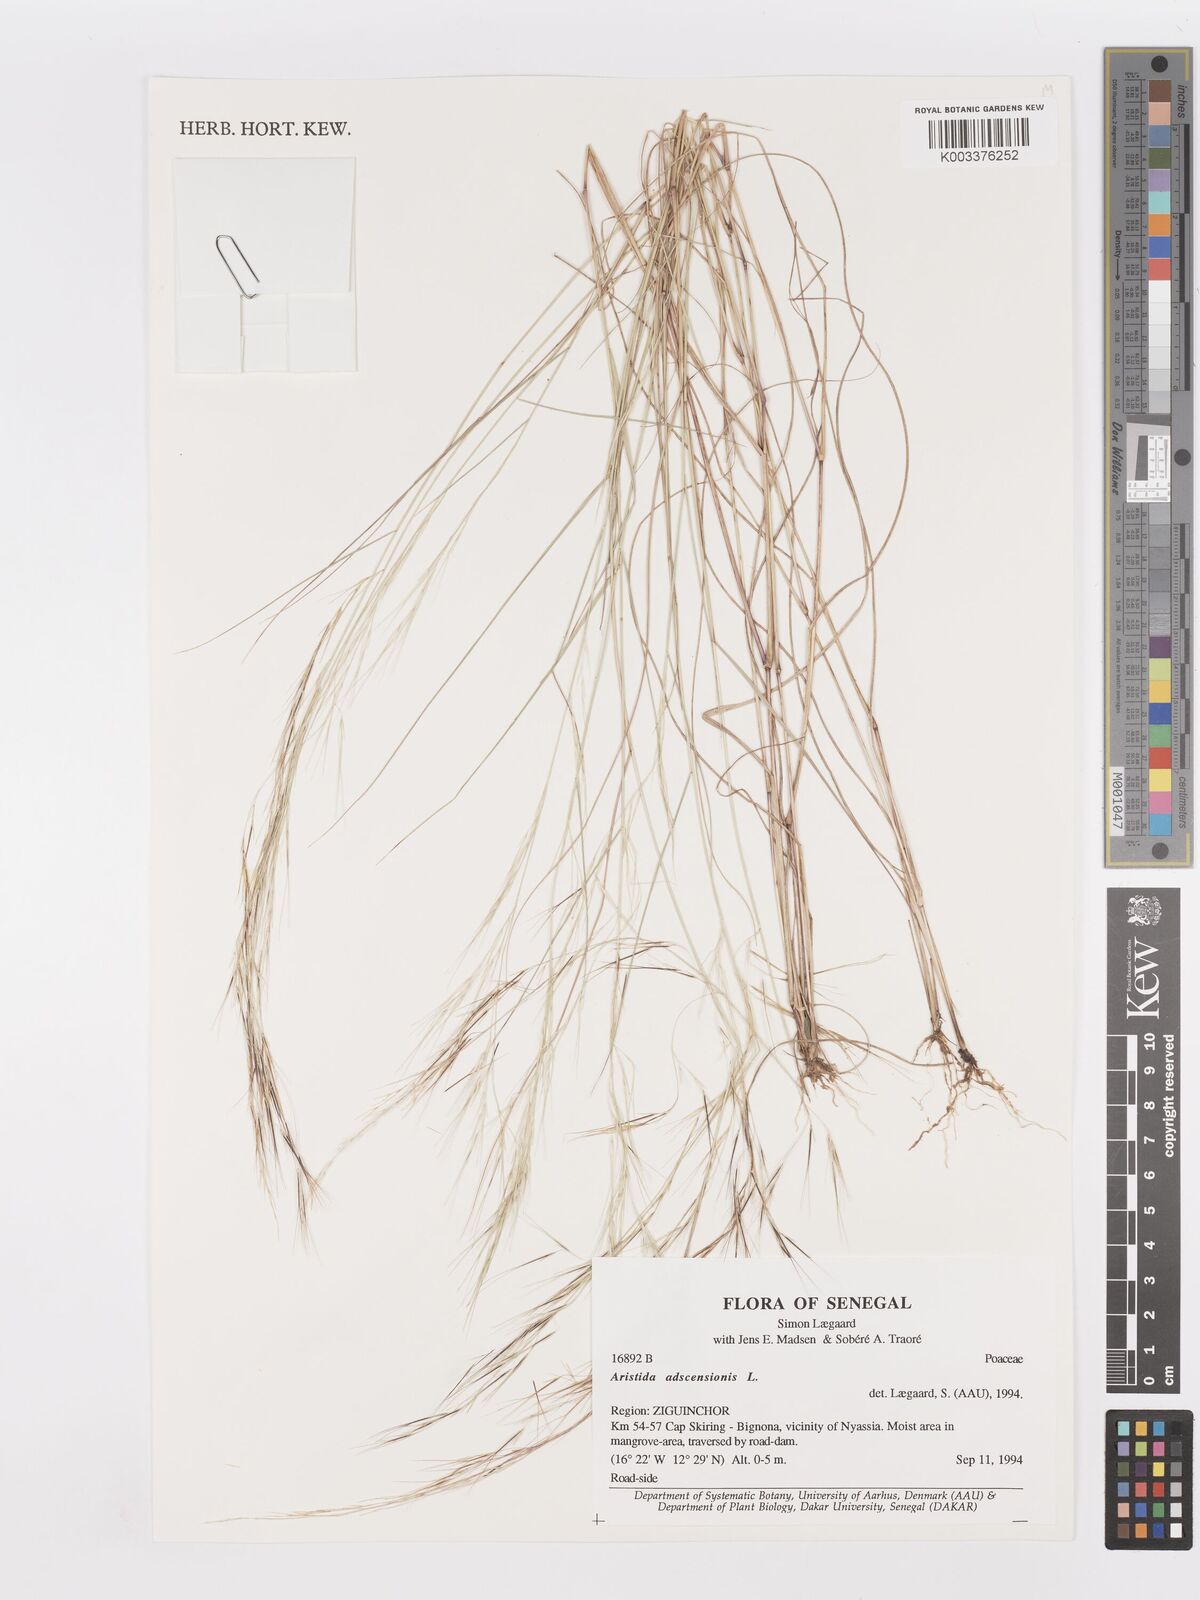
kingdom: Plantae
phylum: Tracheophyta
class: Liliopsida
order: Poales
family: Poaceae
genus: Aristida
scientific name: Aristida adscensionis
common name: Sixweeks threeawn
